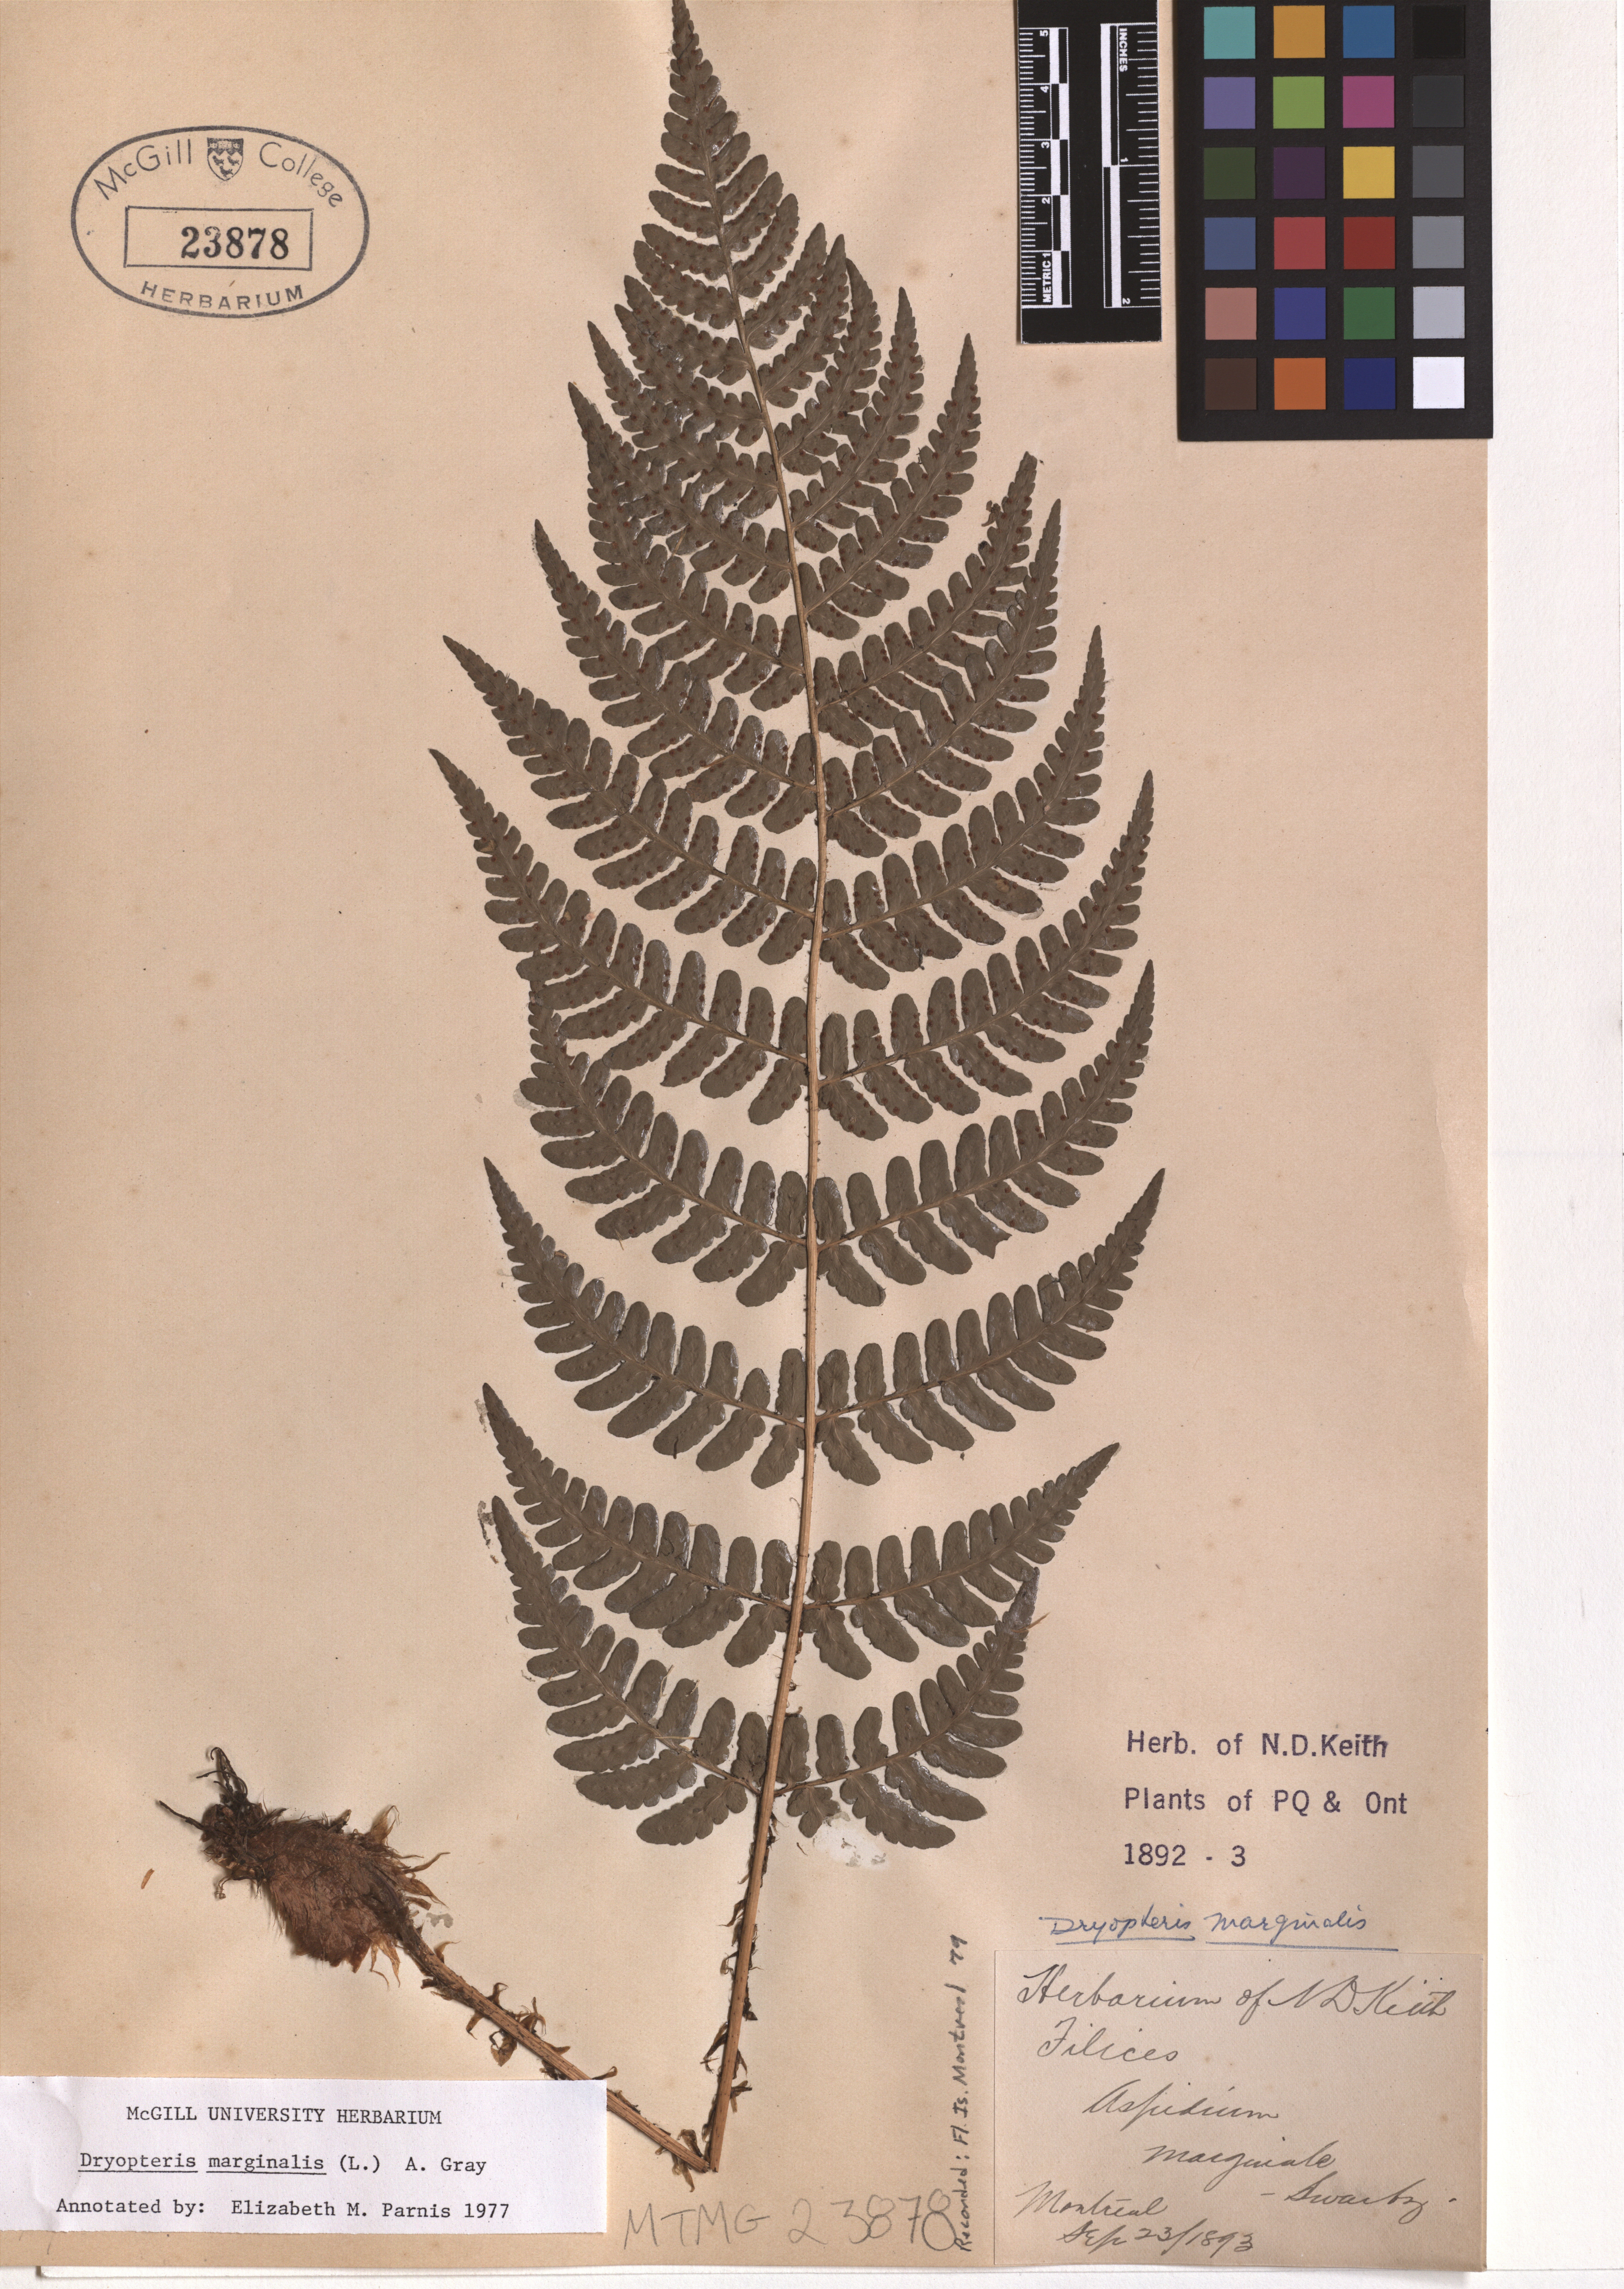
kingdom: Plantae
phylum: Tracheophyta
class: Polypodiopsida
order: Polypodiales
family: Dryopteridaceae
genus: Dryopteris
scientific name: Dryopteris marginalis
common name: Marginal wood fern
